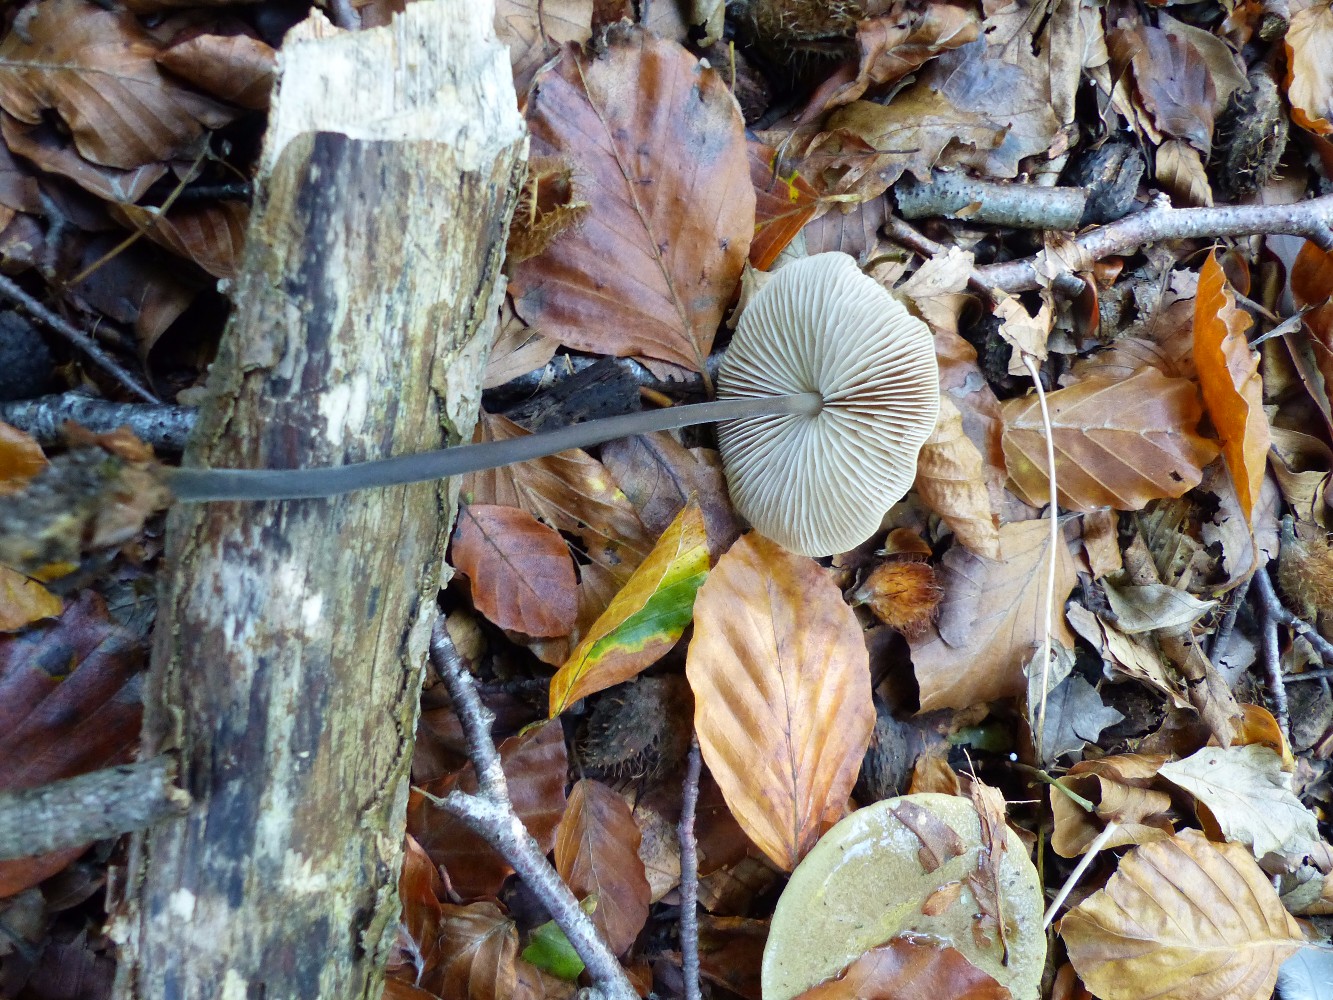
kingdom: Fungi
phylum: Basidiomycota
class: Agaricomycetes
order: Agaricales
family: Omphalotaceae
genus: Mycetinis
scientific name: Mycetinis alliaceus
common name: stor løghat
